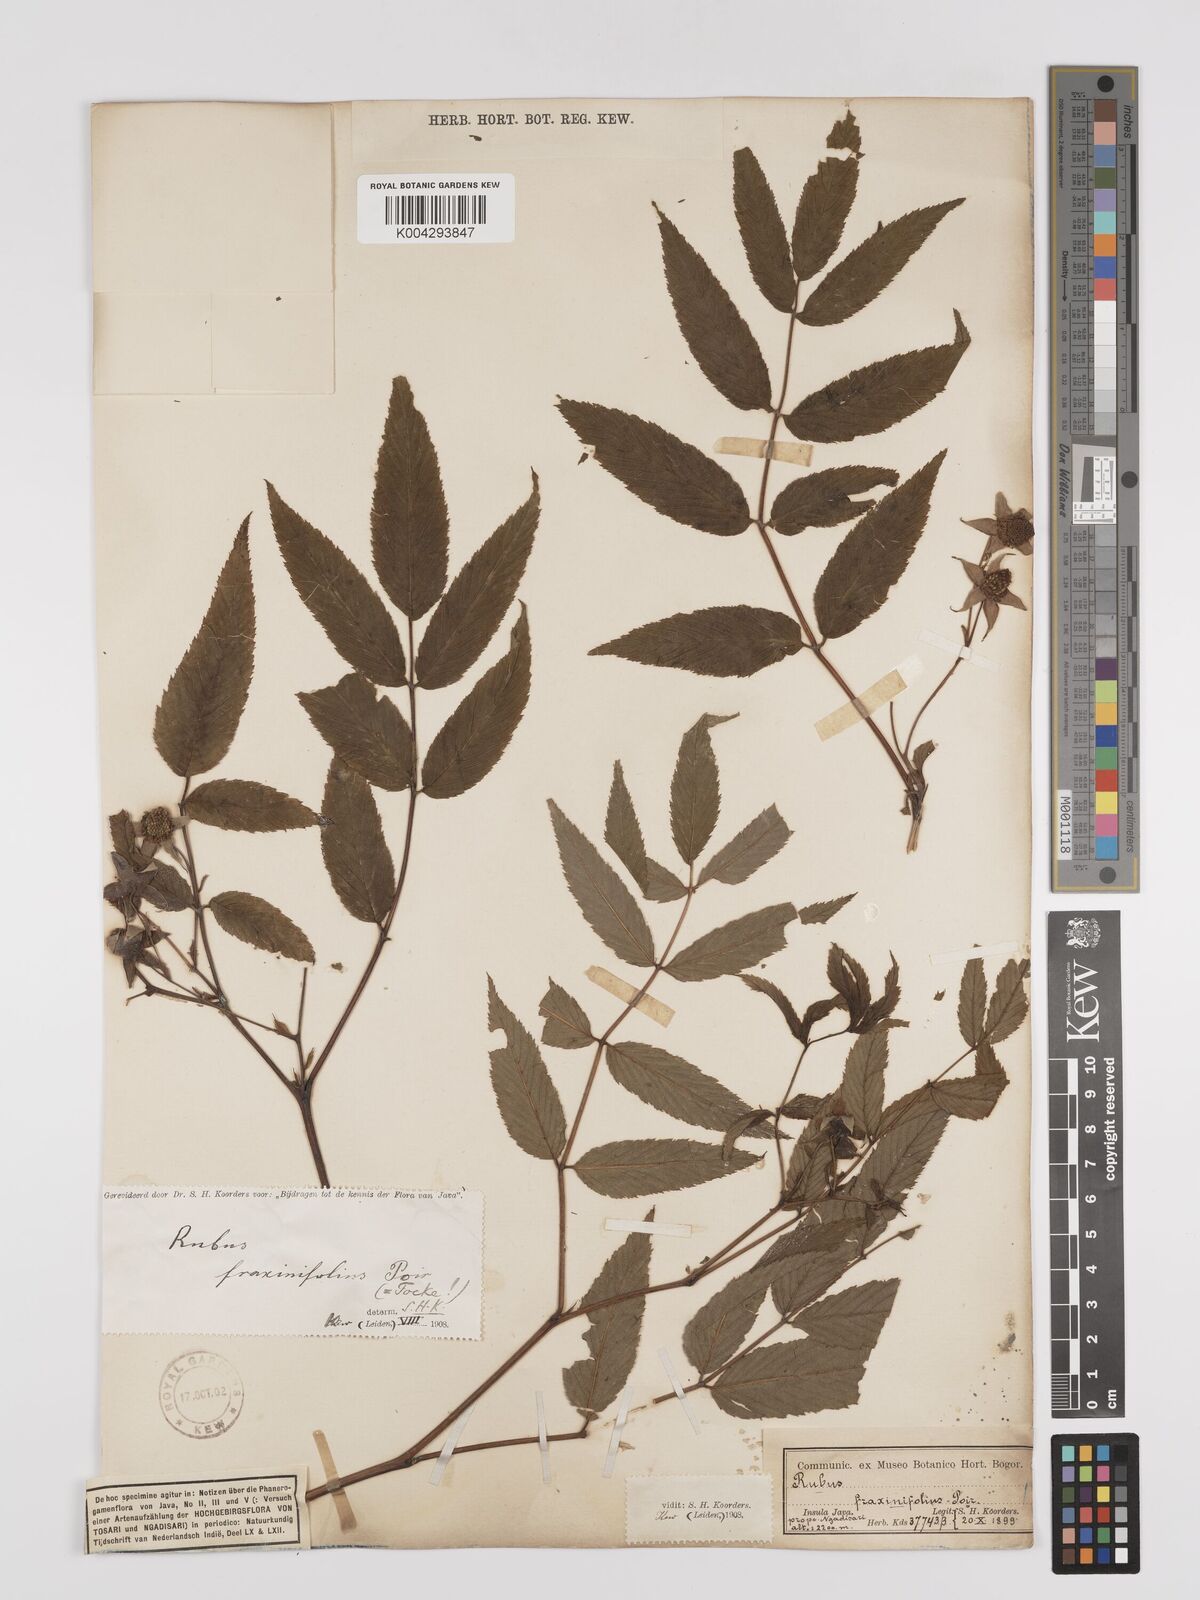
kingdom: Plantae
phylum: Tracheophyta
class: Magnoliopsida
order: Rosales
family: Rosaceae
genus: Rubus
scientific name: Rubus fraxinifolius
